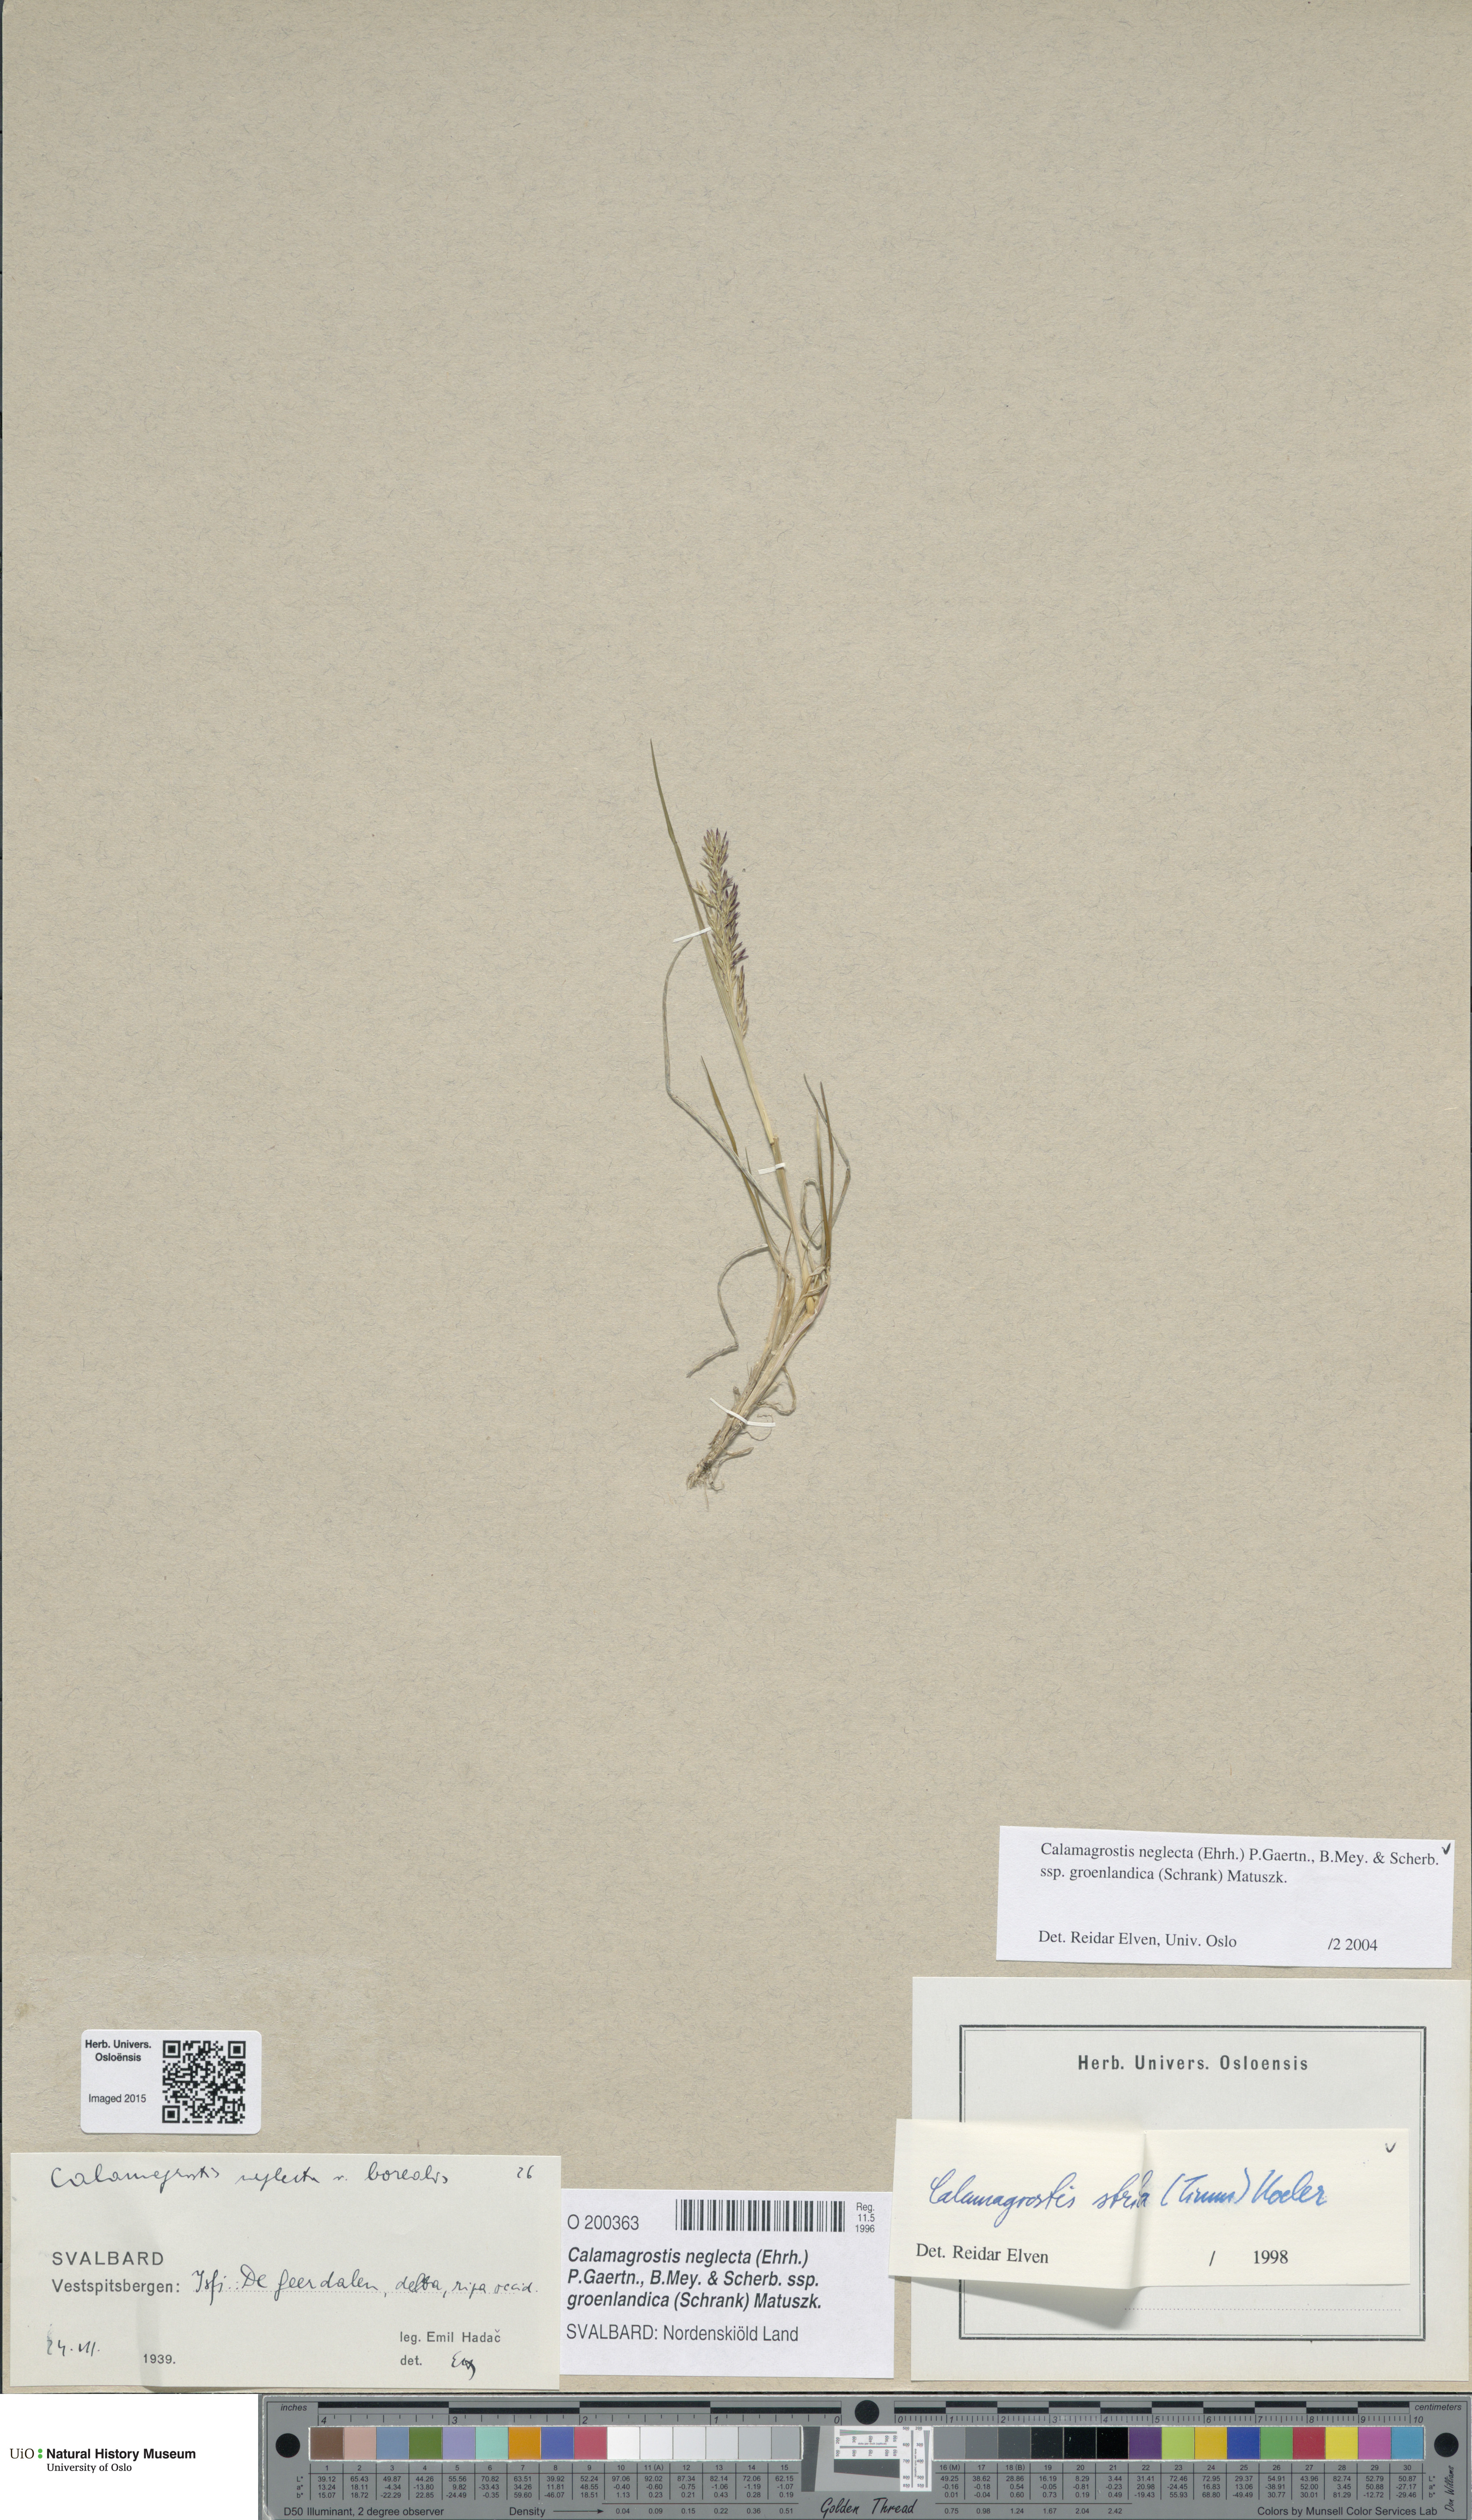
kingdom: Plantae
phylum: Tracheophyta
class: Liliopsida
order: Poales
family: Poaceae
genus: Calamagrostis
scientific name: Calamagrostis stricta
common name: Narrow small-reed
